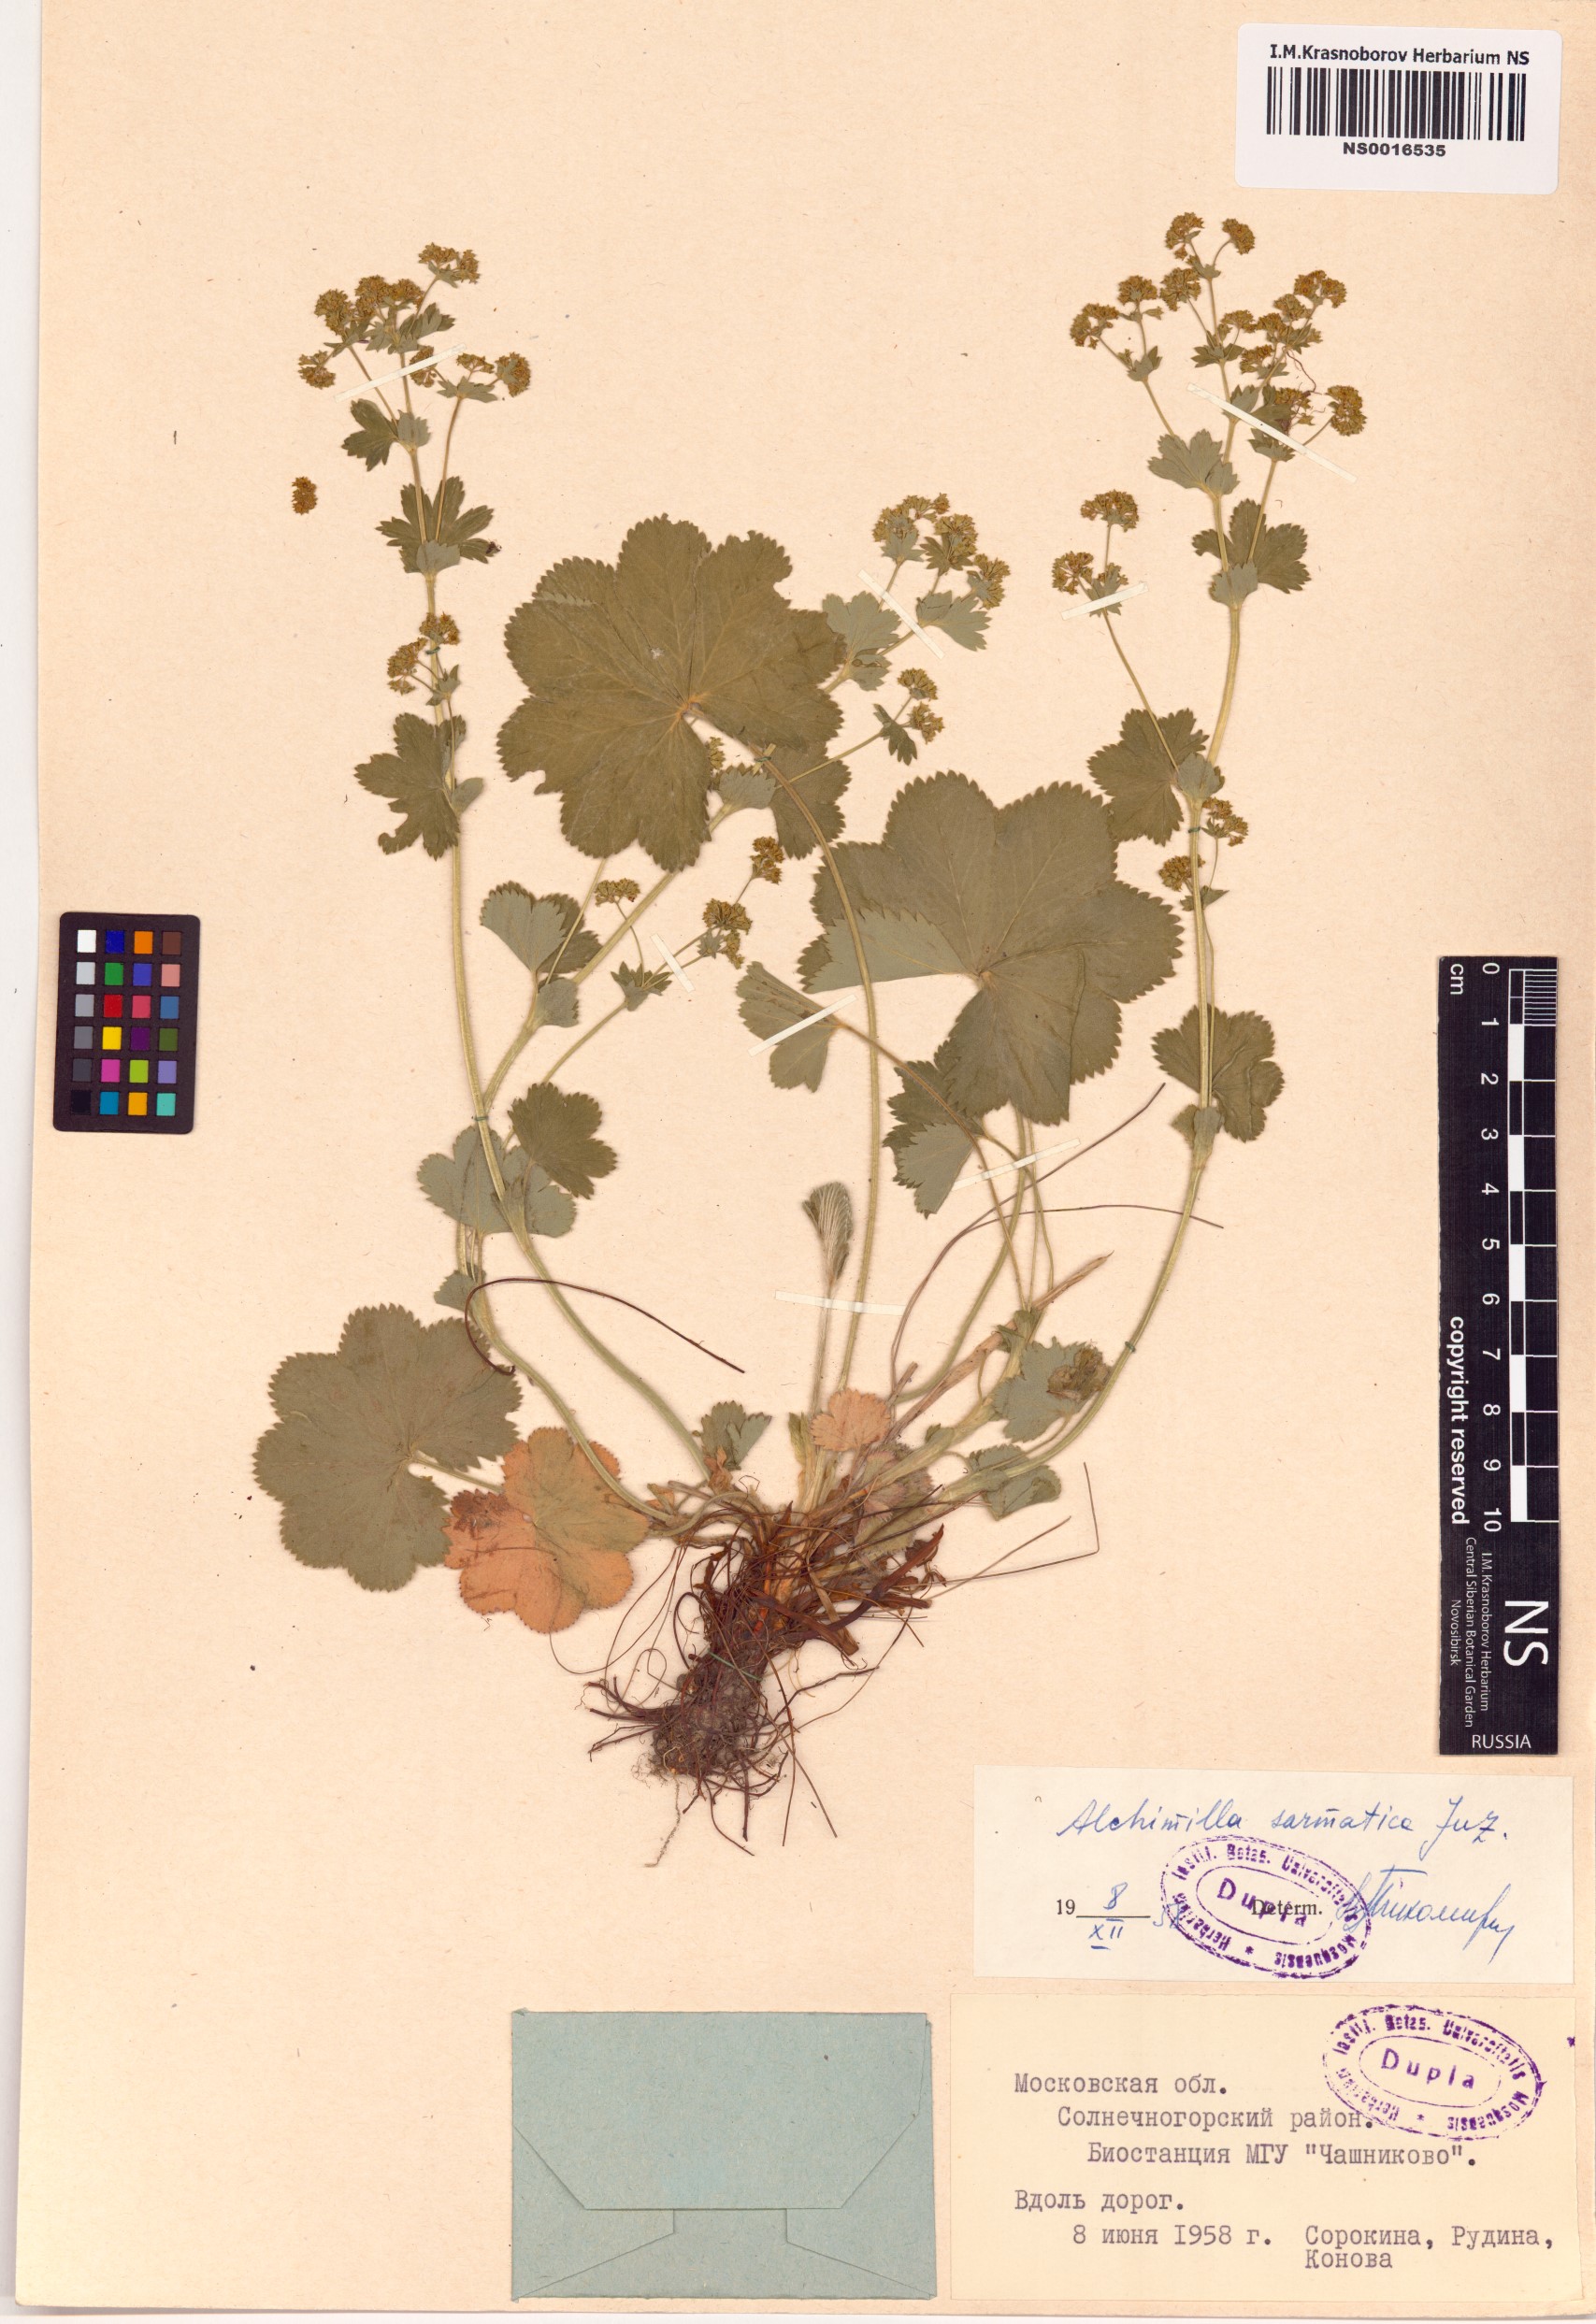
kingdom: Plantae
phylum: Tracheophyta
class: Magnoliopsida
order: Rosales
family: Rosaceae
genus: Alchemilla
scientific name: Alchemilla sarmatica
